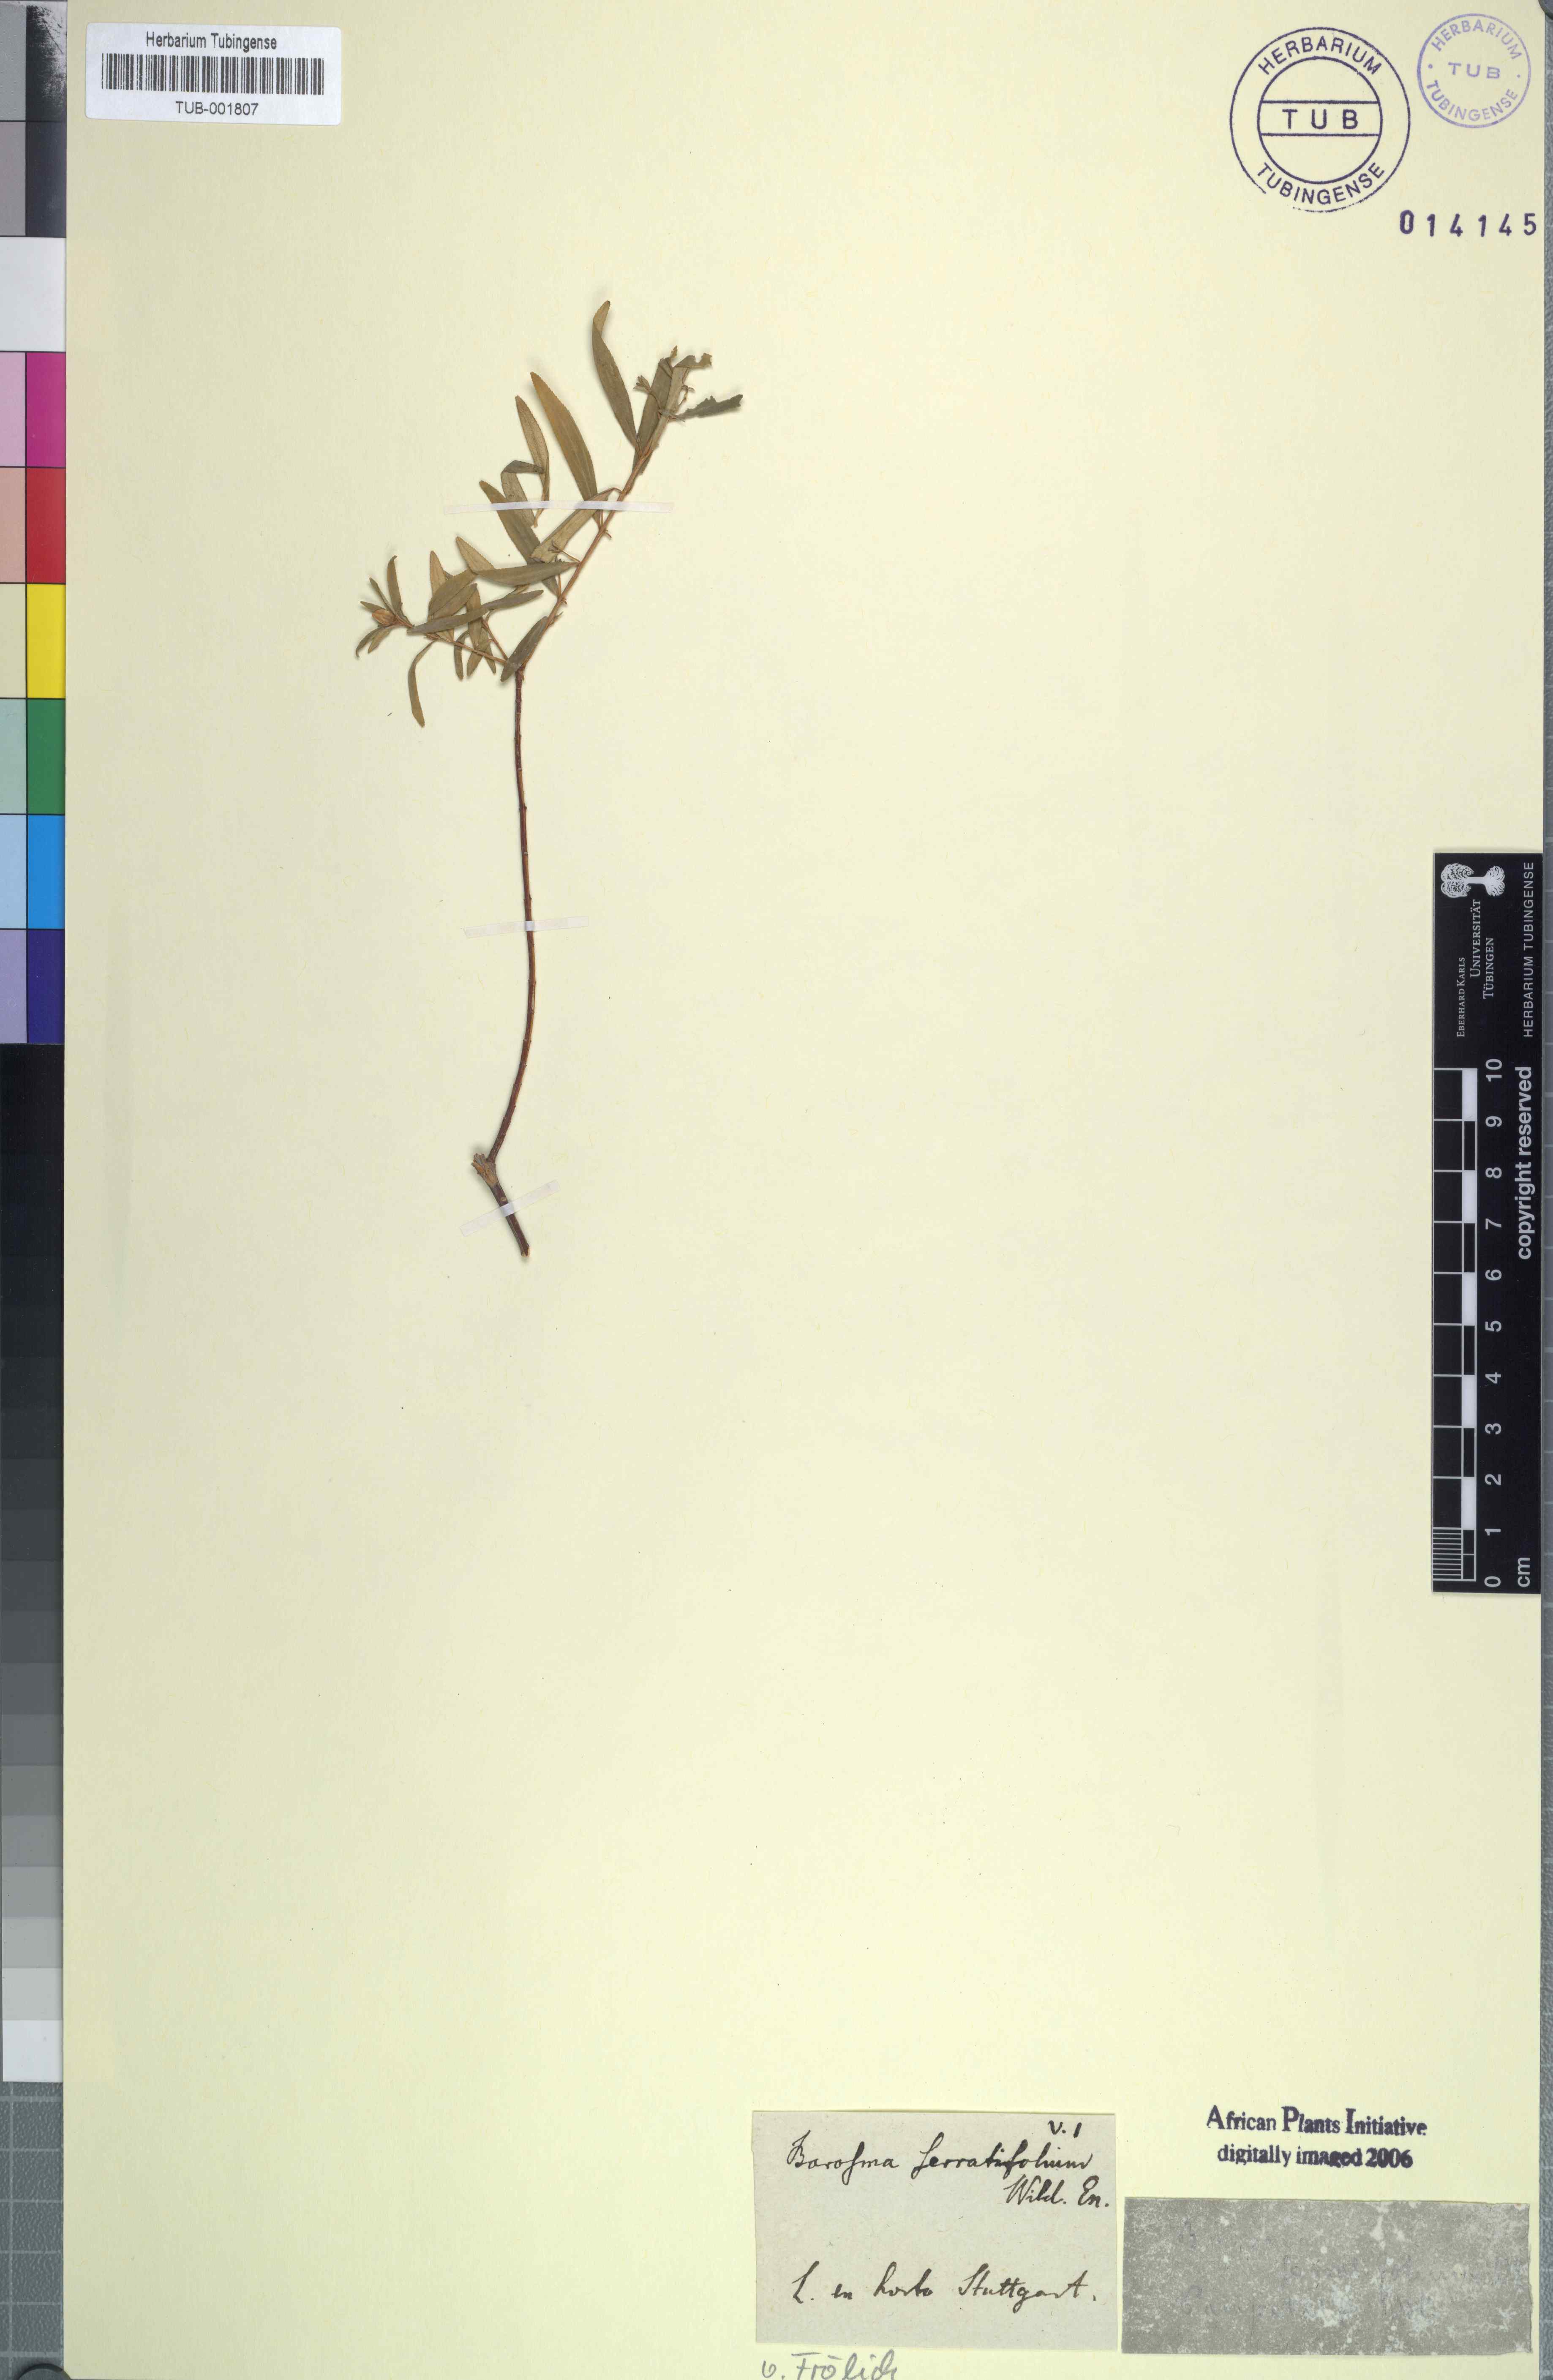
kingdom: Plantae
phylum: Tracheophyta
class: Magnoliopsida
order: Sapindales
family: Rutaceae
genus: Agathosma
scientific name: Agathosma
